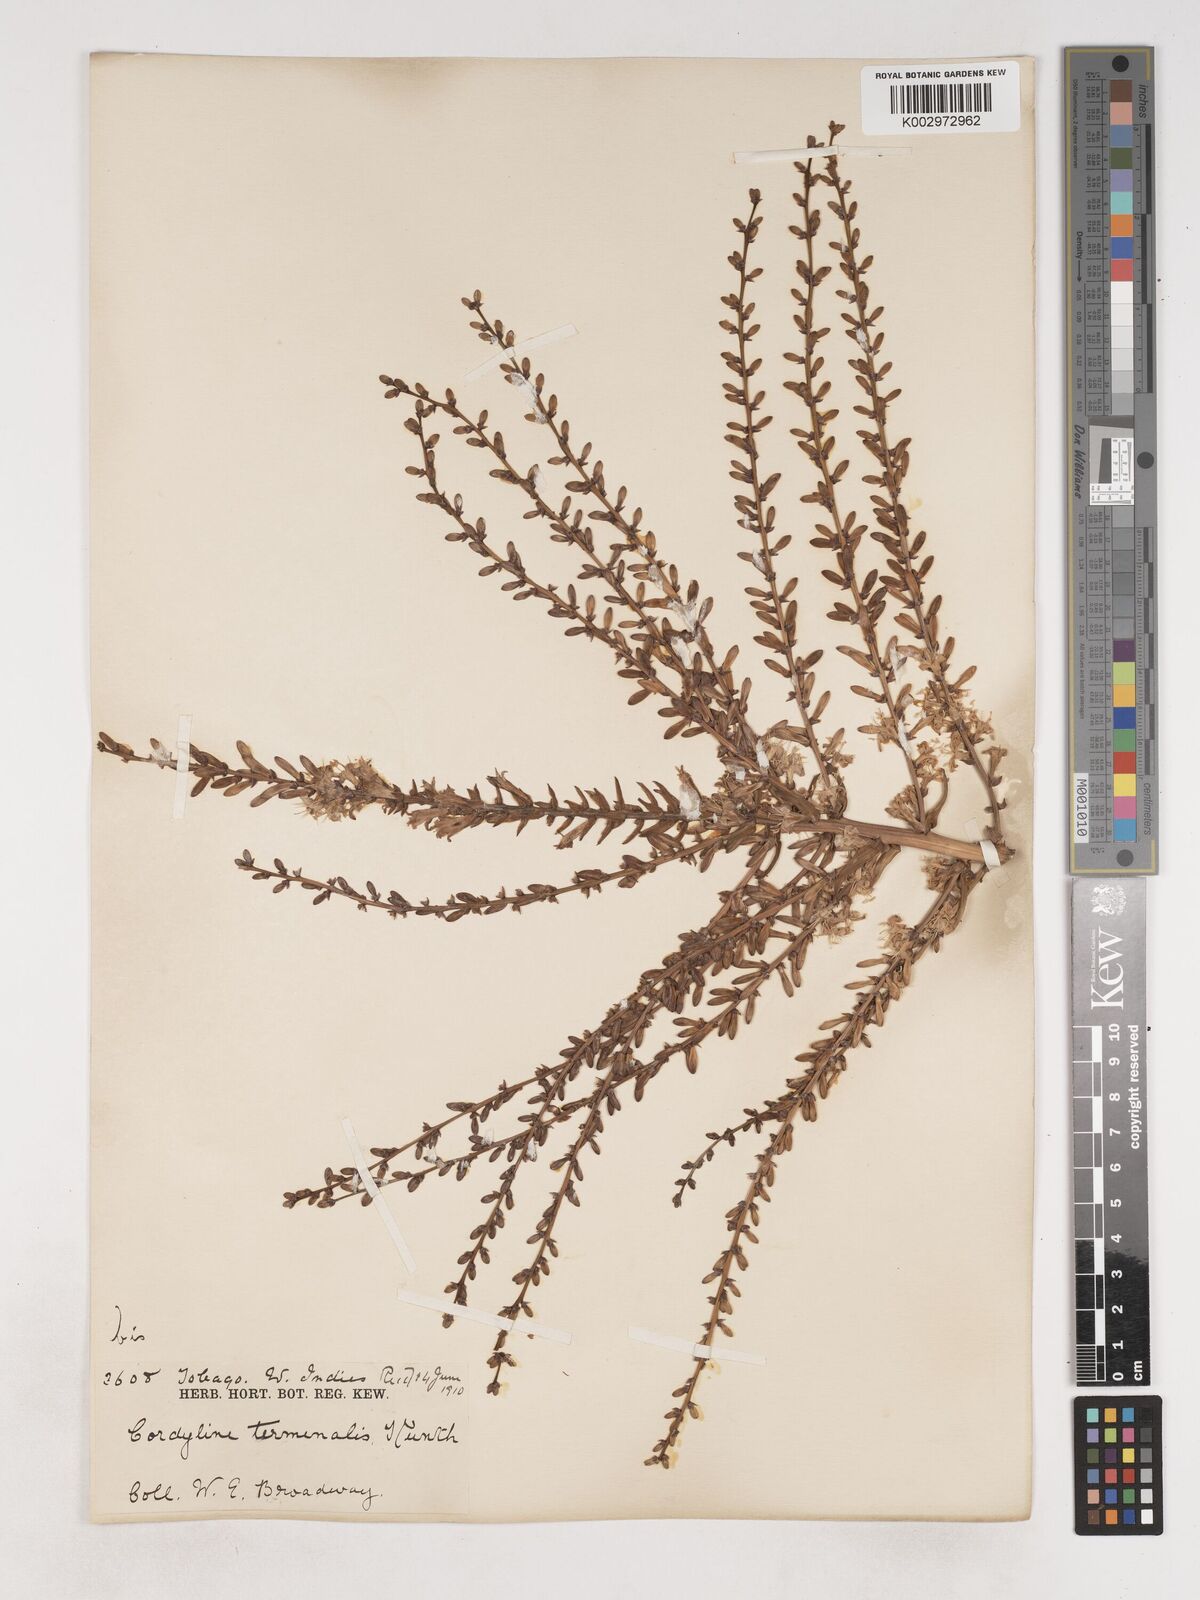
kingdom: Plantae
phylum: Tracheophyta
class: Liliopsida
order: Asparagales
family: Asparagaceae
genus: Cordyline
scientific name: Cordyline fruticosa
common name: Good-luck-plant
